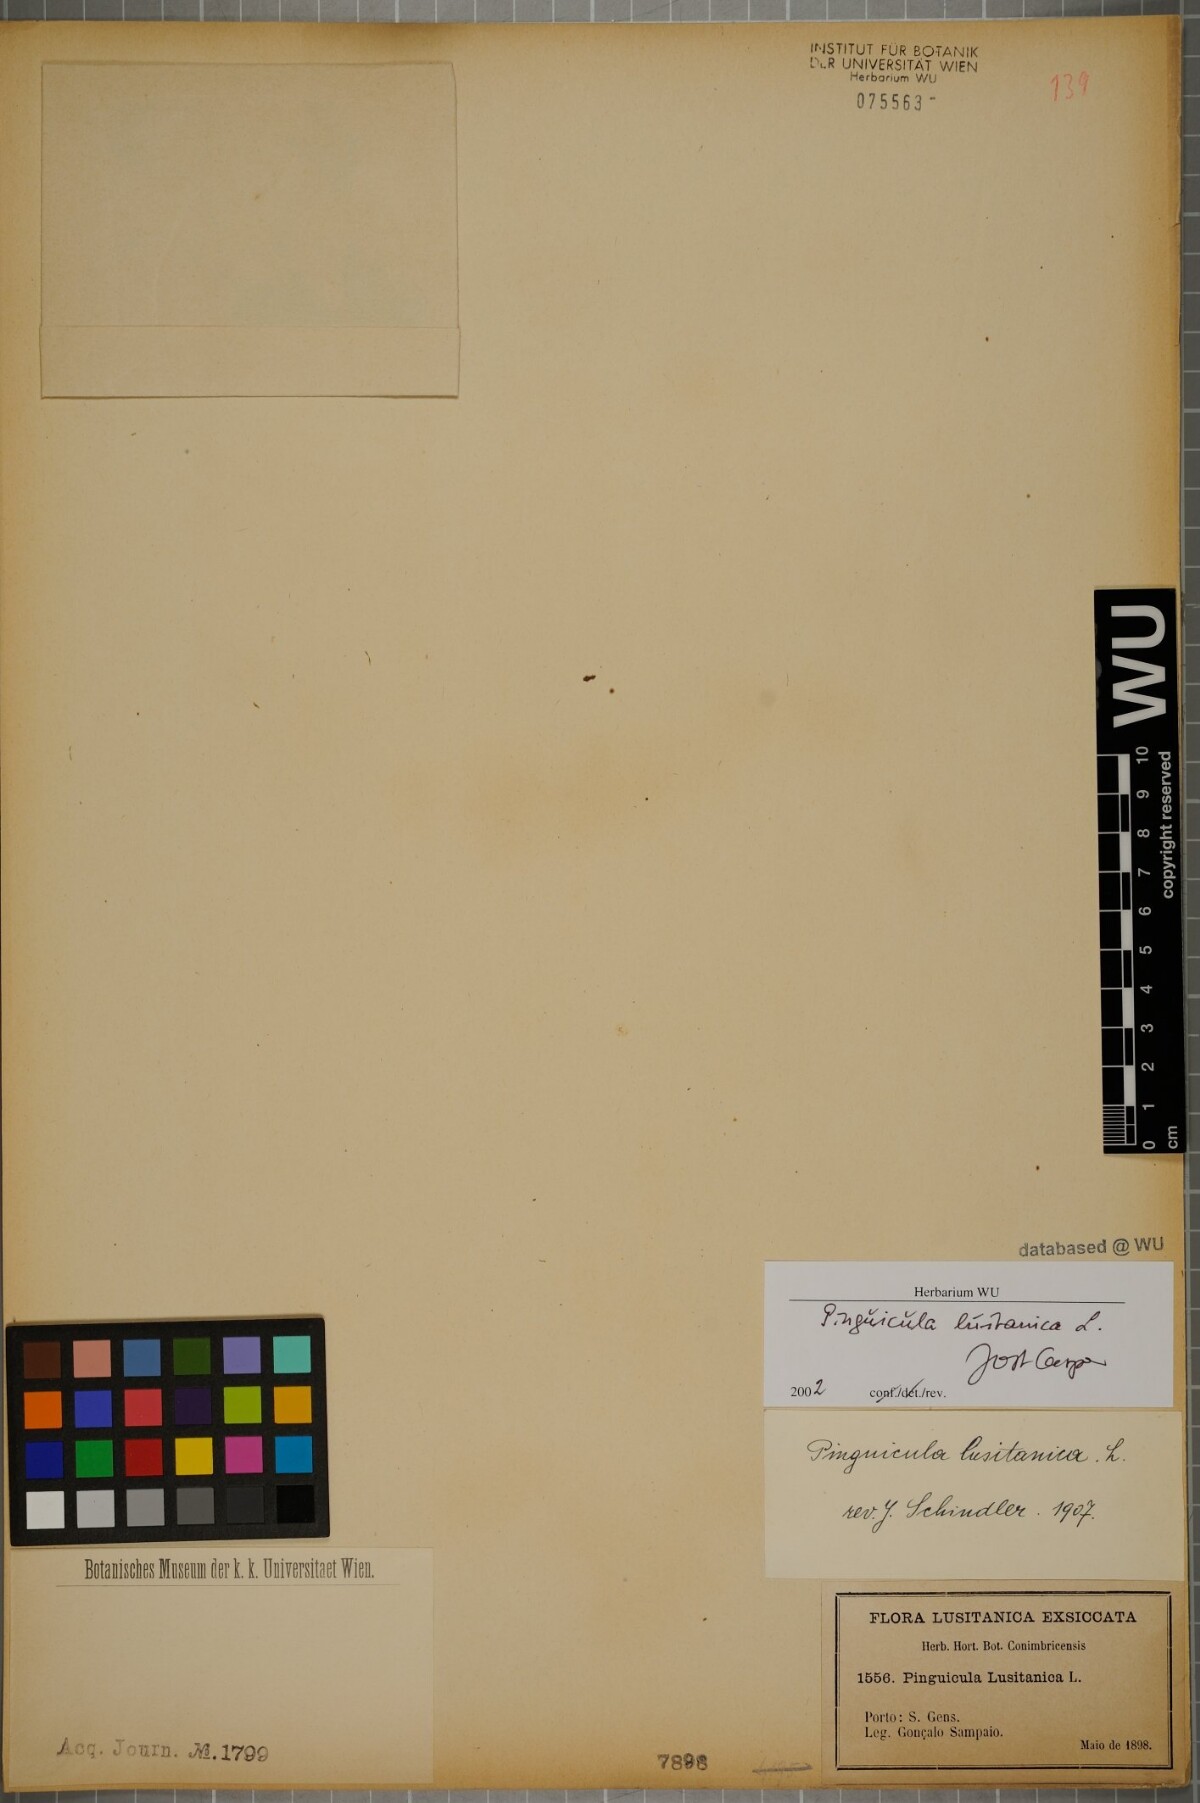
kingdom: Plantae
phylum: Tracheophyta
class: Magnoliopsida
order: Lamiales
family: Lentibulariaceae
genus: Pinguicula
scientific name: Pinguicula lusitanica
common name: Pale butterwort
